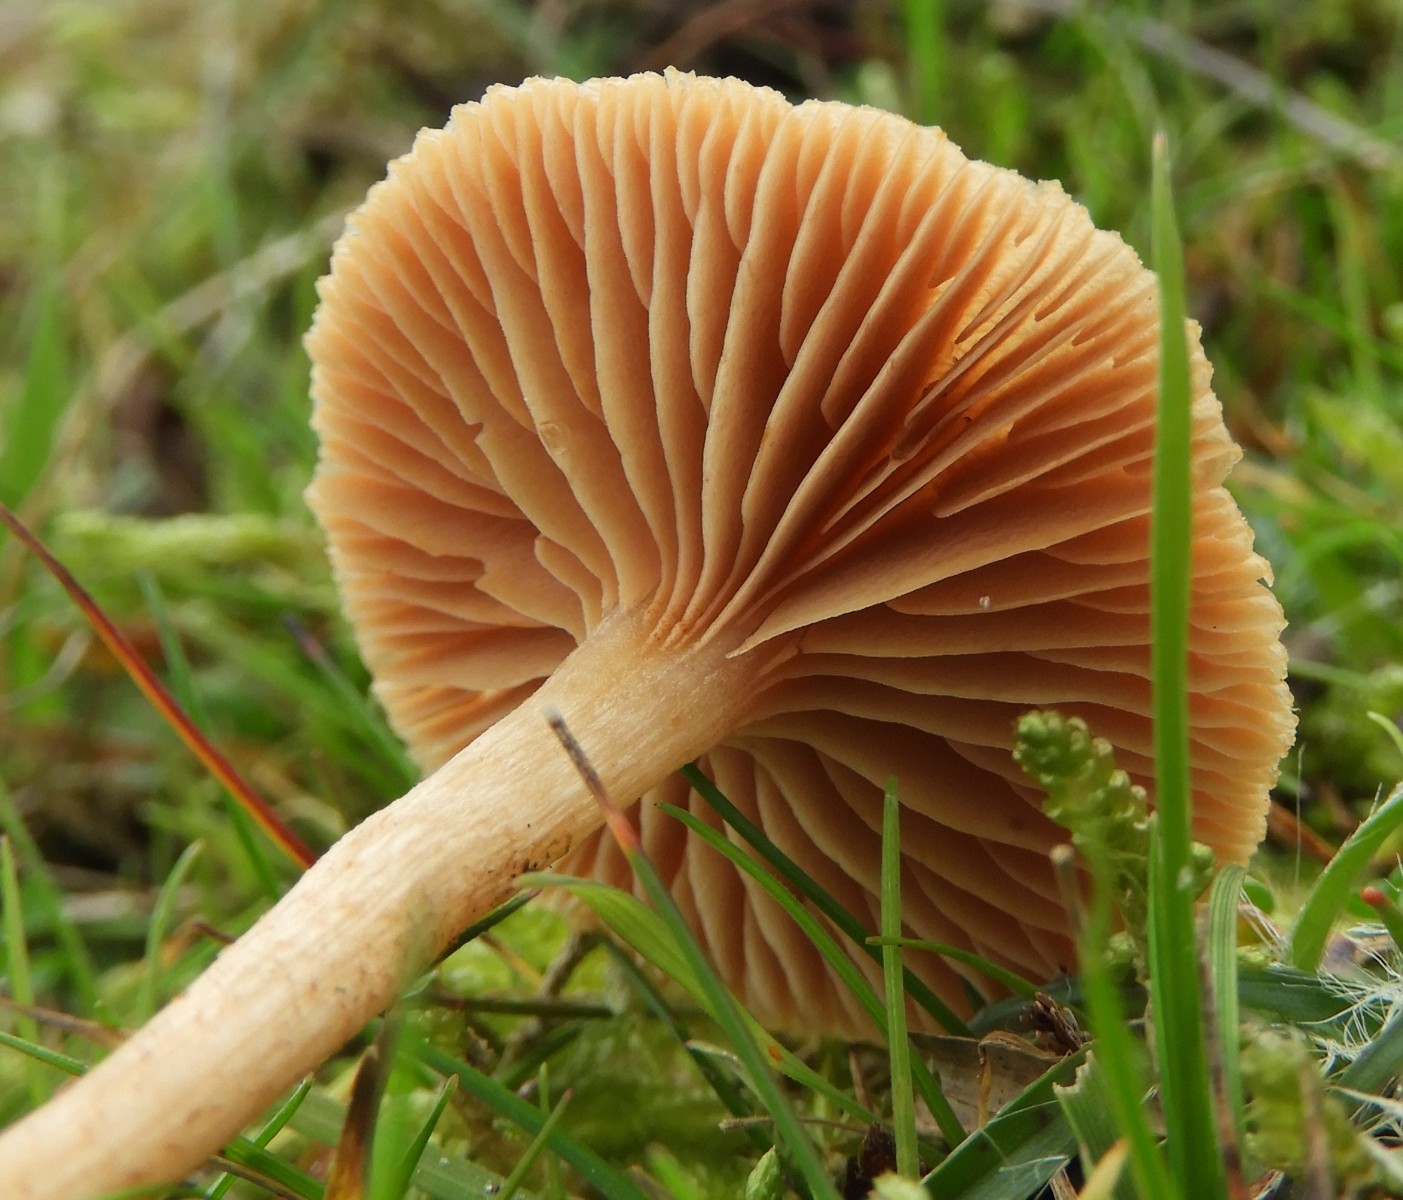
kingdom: Fungi
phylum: Basidiomycota
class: Agaricomycetes
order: Agaricales
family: Tubariaceae
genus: Tubaria
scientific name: Tubaria furfuracea
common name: kliddet fnughat
